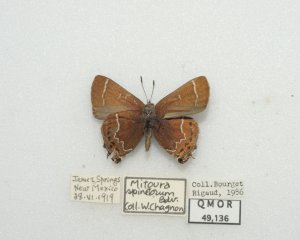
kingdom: Animalia
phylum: Arthropoda
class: Insecta
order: Lepidoptera
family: Lycaenidae
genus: Mitoura
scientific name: Mitoura spinetorum
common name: Thicket Hairstreak
